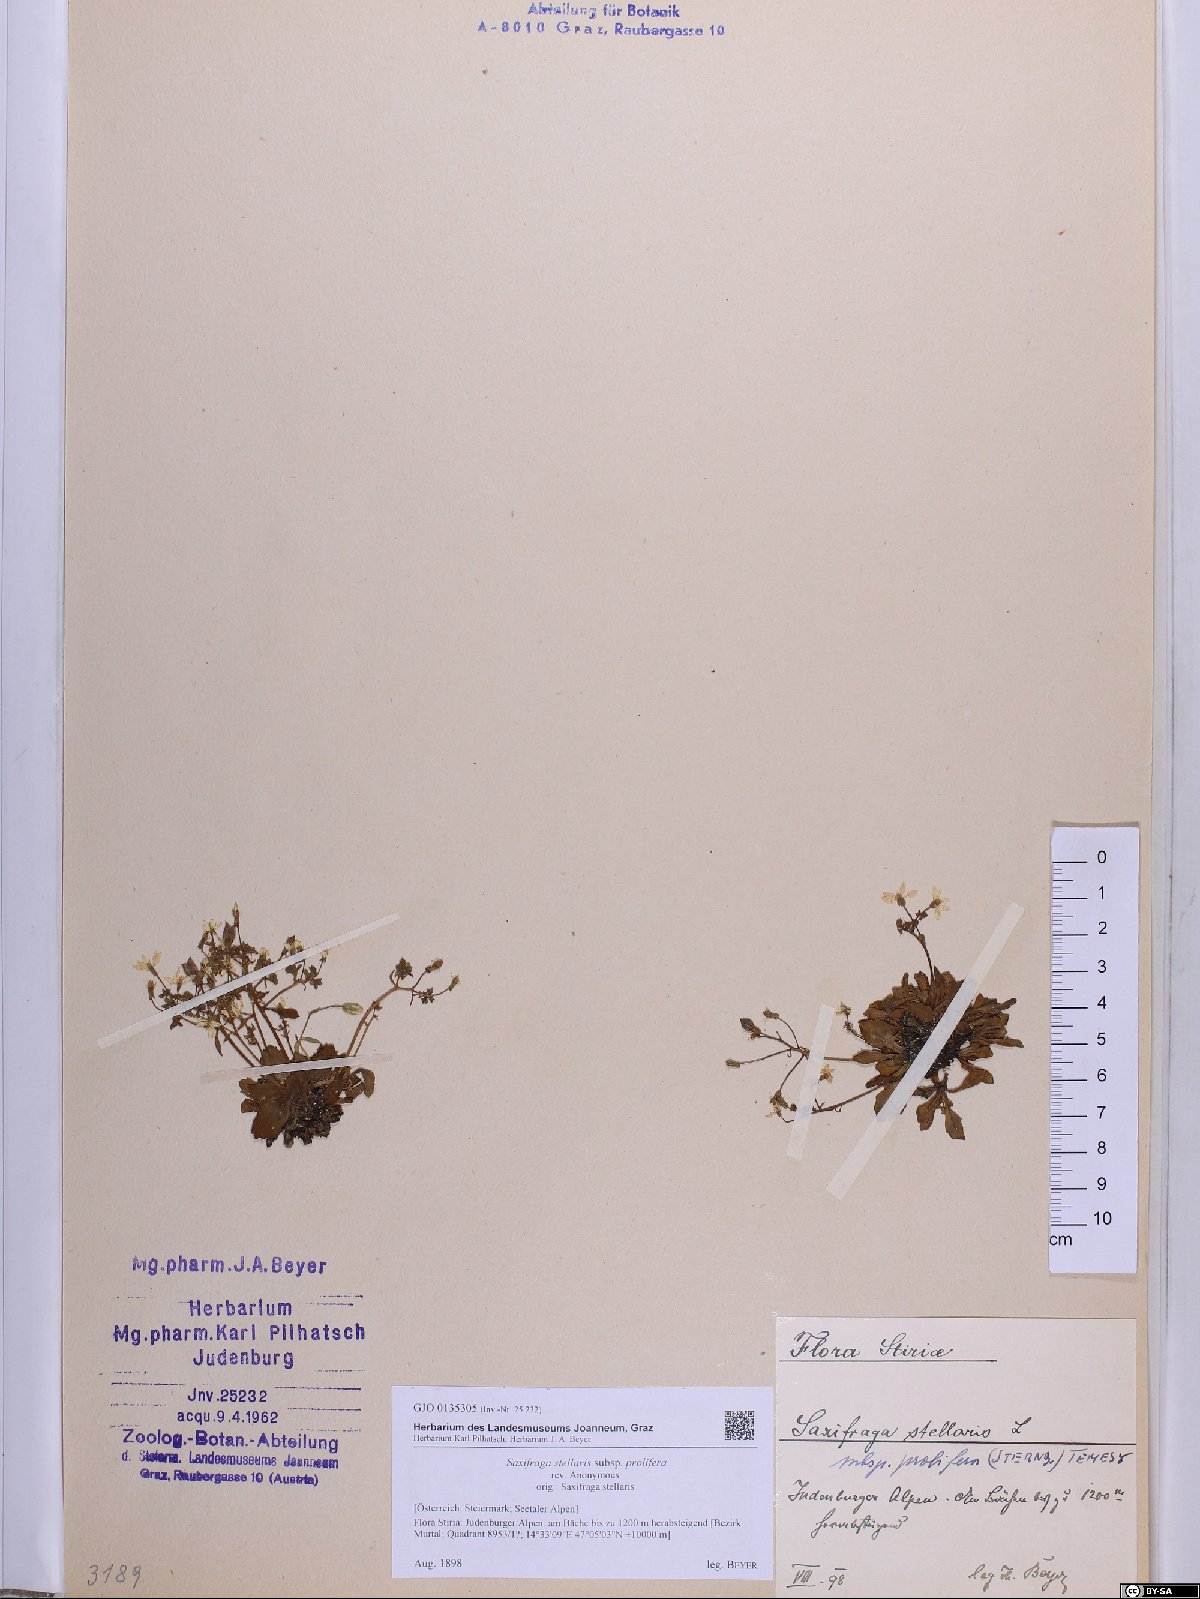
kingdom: Plantae
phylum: Tracheophyta
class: Magnoliopsida
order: Saxifragales
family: Saxifragaceae
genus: Micranthes
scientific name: Micranthes stellaris
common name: Starry saxifrage
